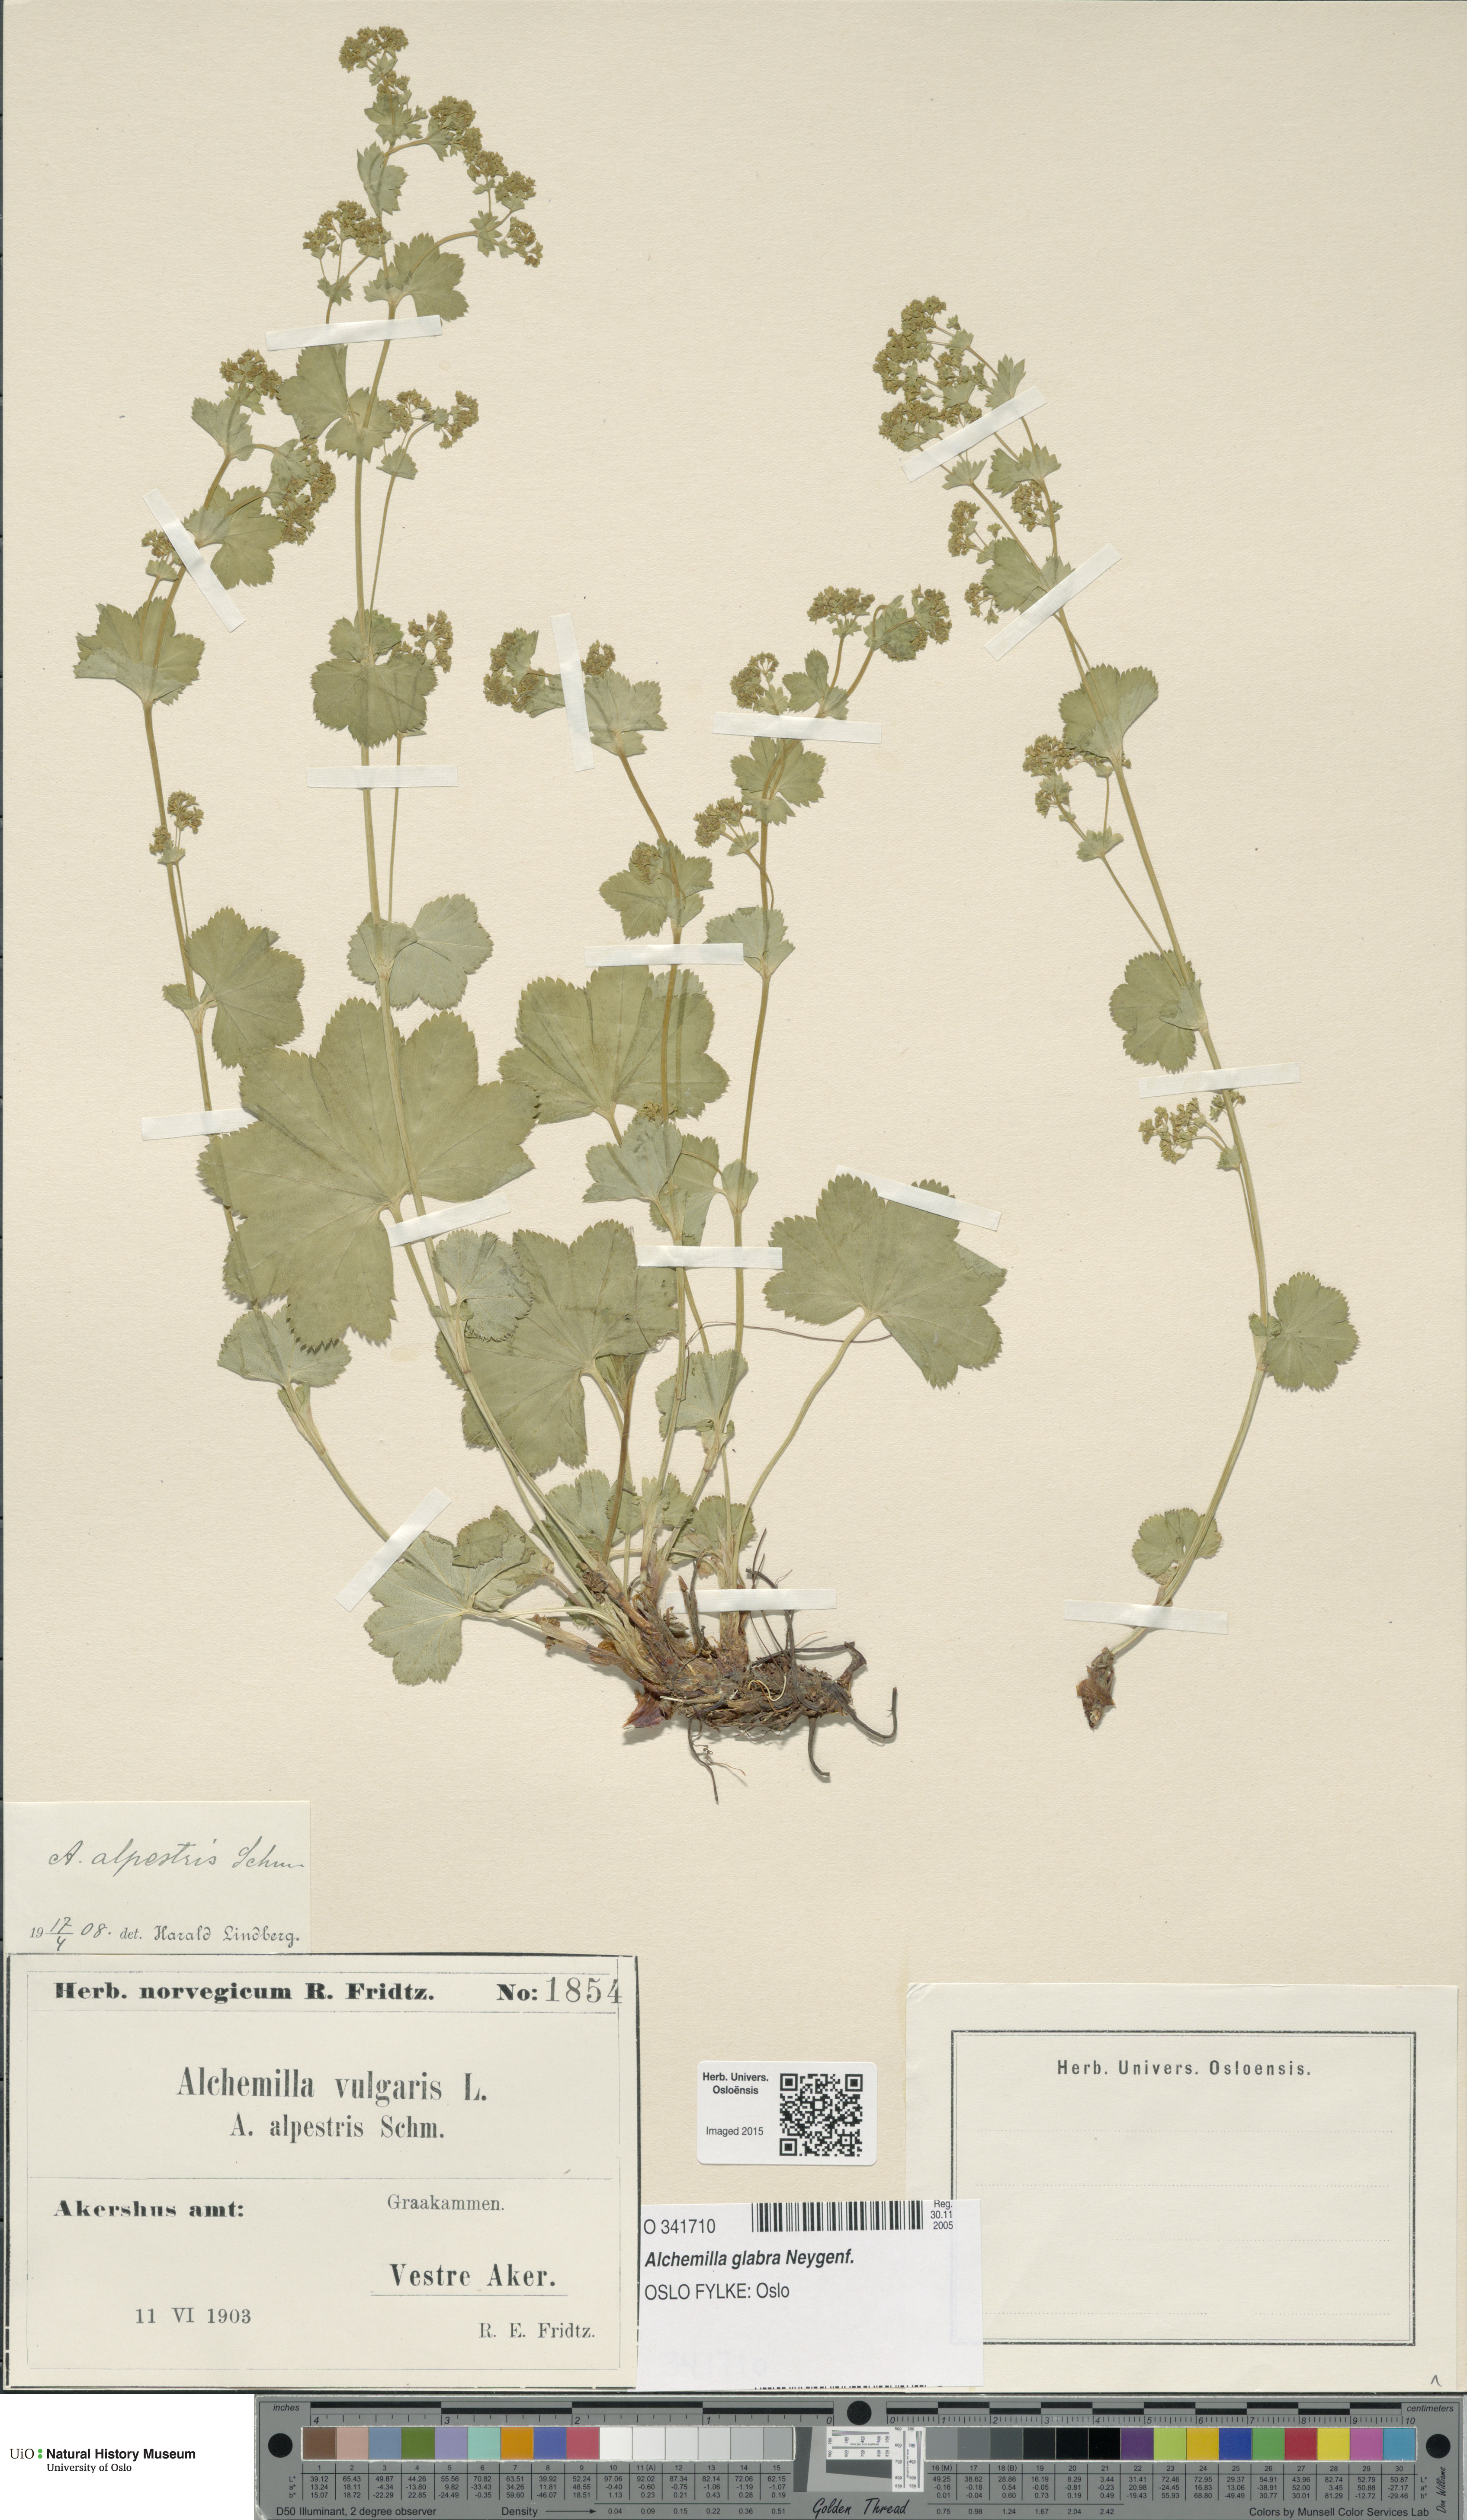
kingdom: Plantae
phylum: Tracheophyta
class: Magnoliopsida
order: Rosales
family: Rosaceae
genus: Alchemilla
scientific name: Alchemilla glabra
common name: Smooth lady's-mantle
